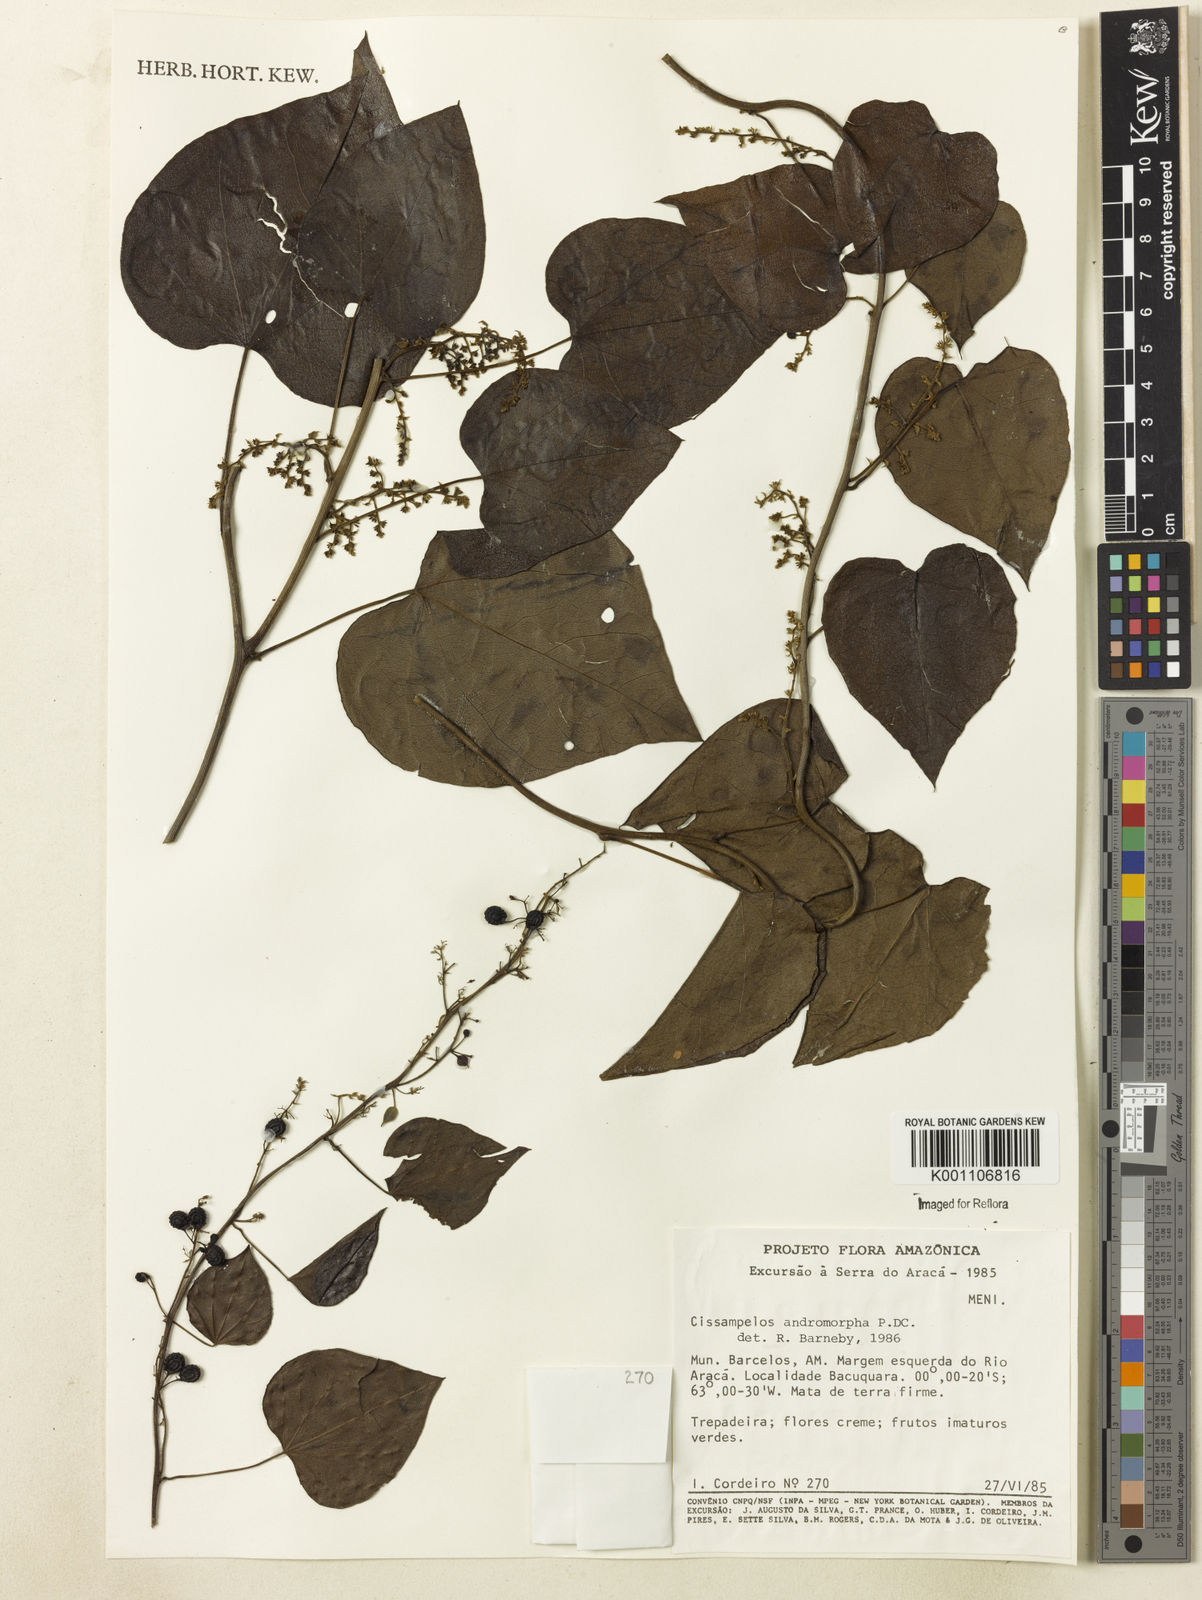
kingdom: Plantae
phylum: Tracheophyta
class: Magnoliopsida
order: Ranunculales
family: Menispermaceae
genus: Cissampelos
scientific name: Cissampelos andromorpha
